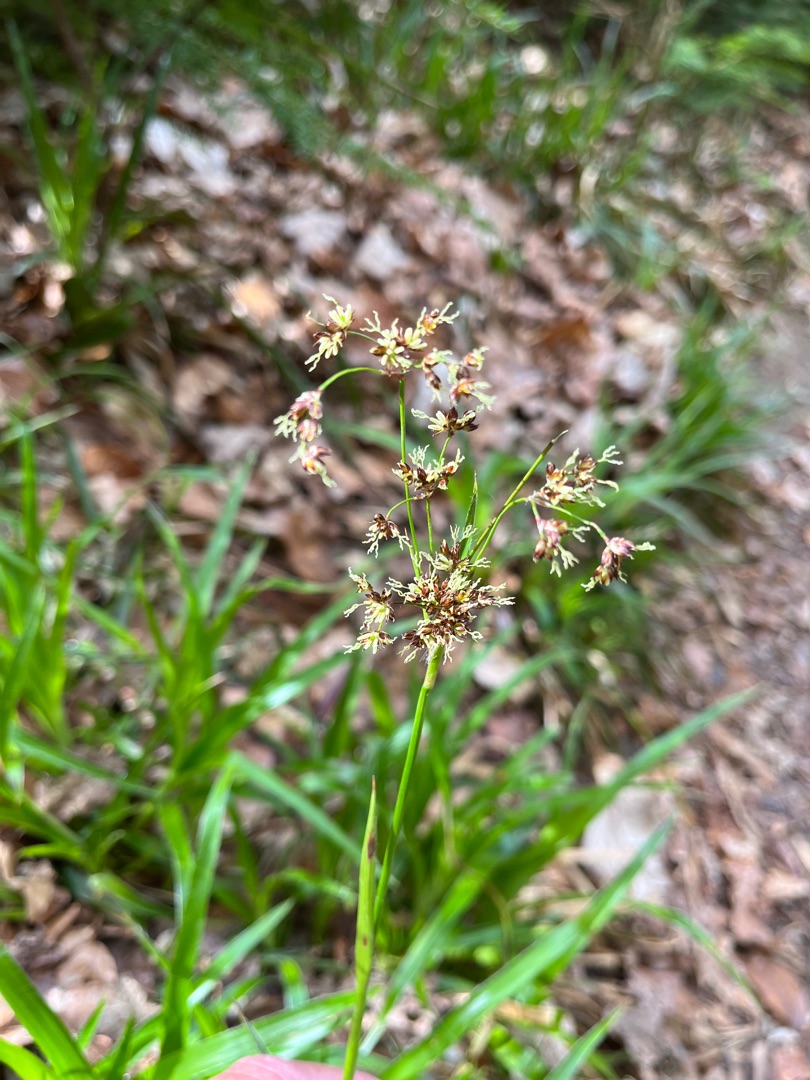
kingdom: Plantae
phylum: Tracheophyta
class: Liliopsida
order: Poales
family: Juncaceae
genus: Luzula
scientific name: Luzula sylvatica
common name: Stor frytle
